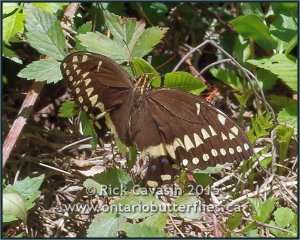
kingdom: Animalia
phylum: Arthropoda
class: Insecta
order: Lepidoptera
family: Papilionidae
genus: Pterourus
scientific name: Pterourus palamedes
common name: Palamedes Swallowtail
